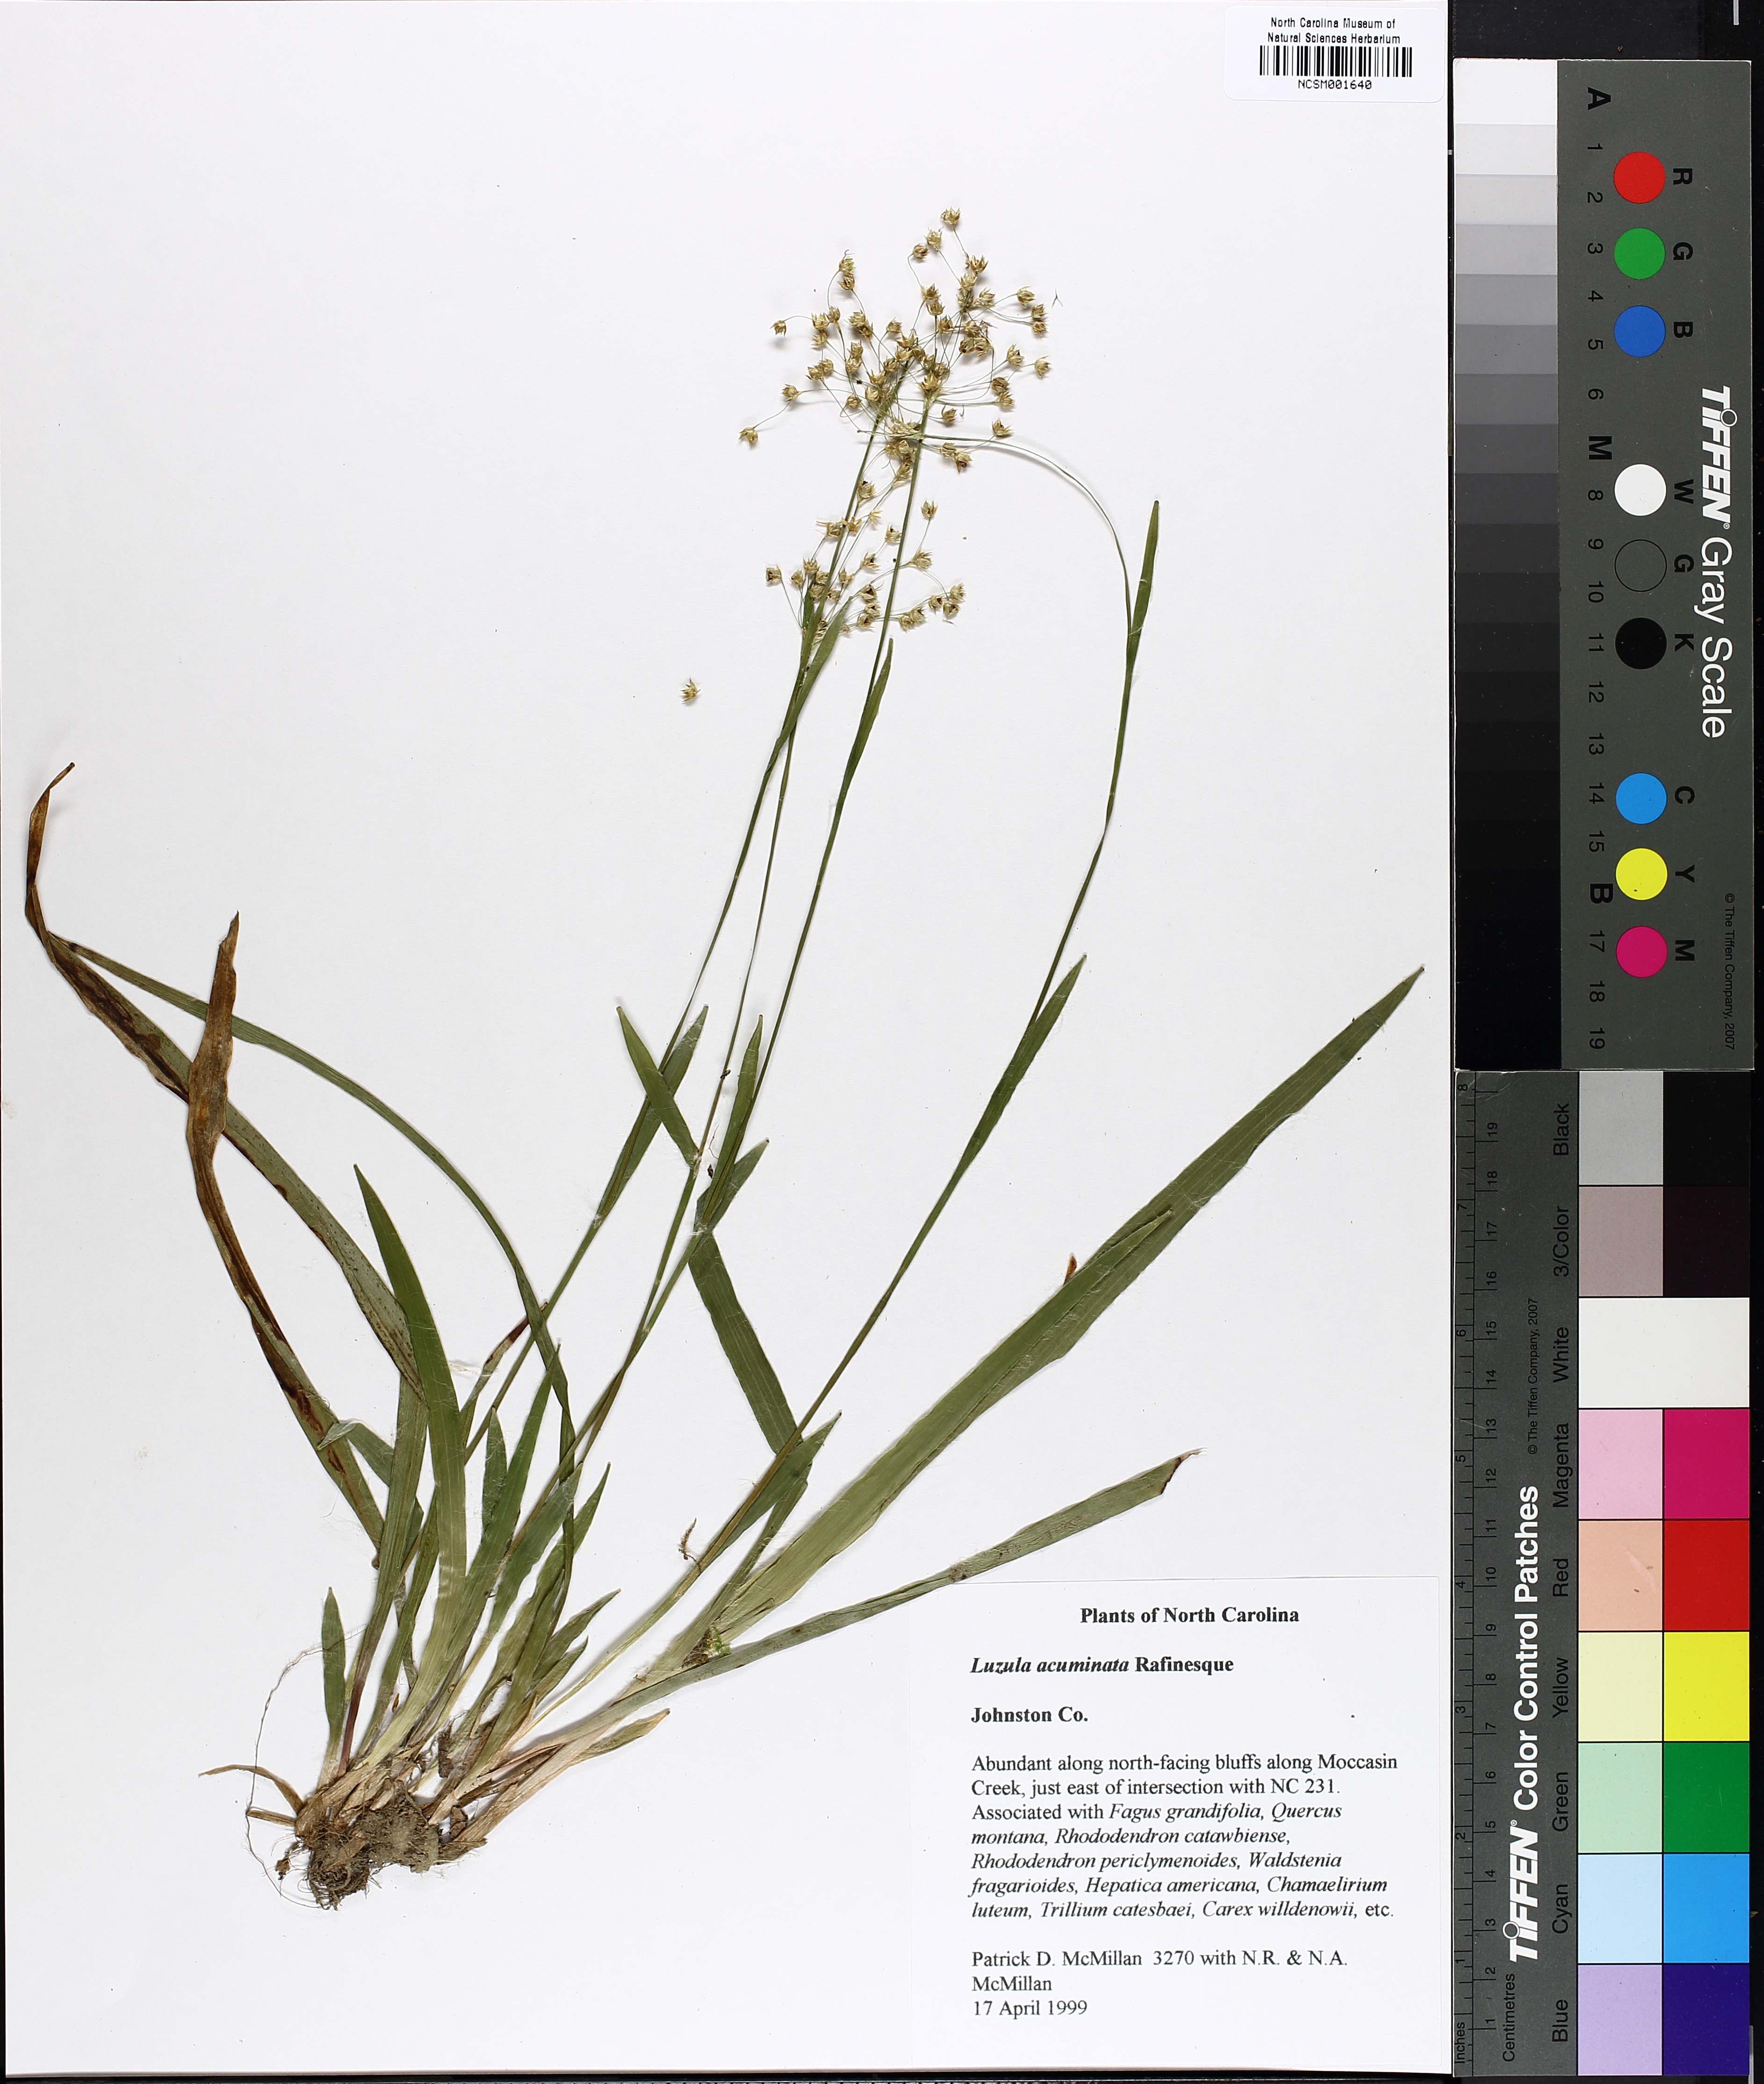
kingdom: Plantae
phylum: Tracheophyta
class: Liliopsida
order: Poales
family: Juncaceae
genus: Luzula
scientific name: Luzula acuminata
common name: Hairy woodrush
